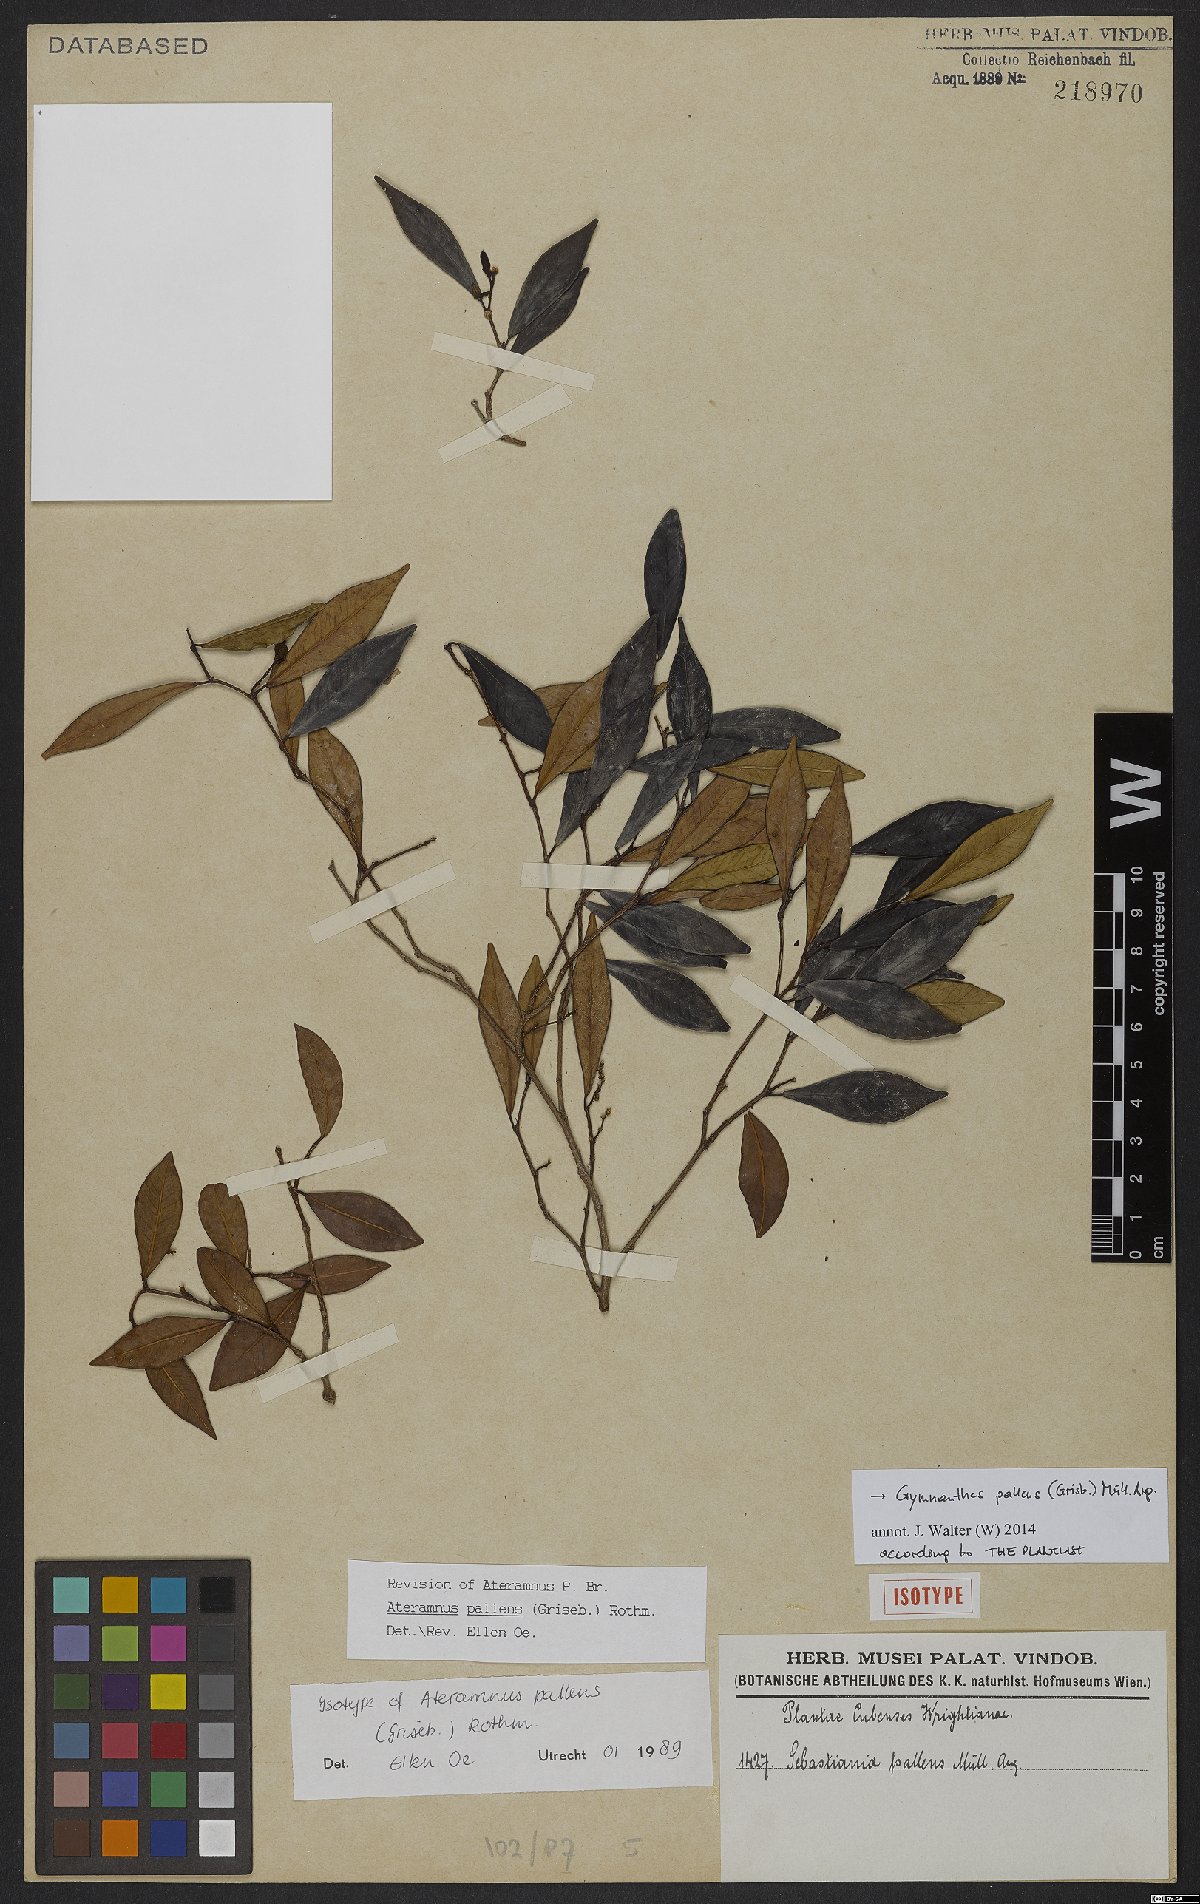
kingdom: Plantae
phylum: Tracheophyta
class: Magnoliopsida
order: Malpighiales
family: Euphorbiaceae
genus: Gymnanthes
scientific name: Gymnanthes pallens
